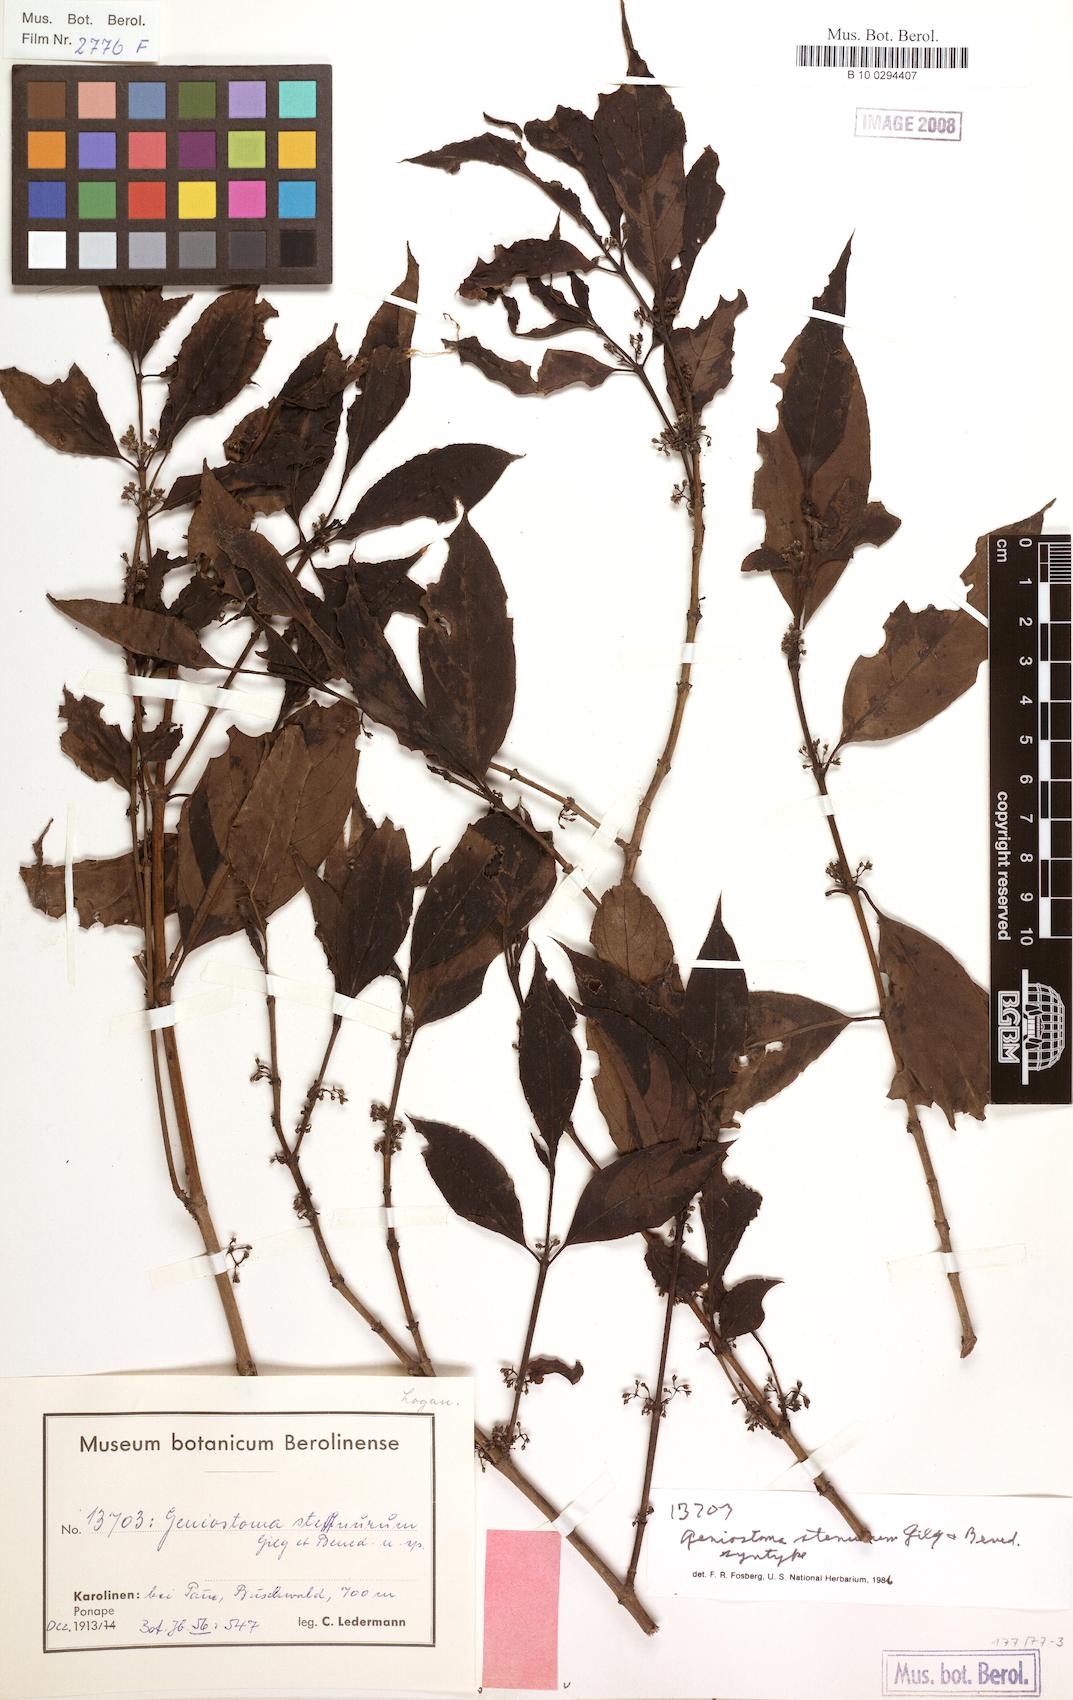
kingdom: Plantae
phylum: Tracheophyta
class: Magnoliopsida
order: Gentianales
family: Loganiaceae
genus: Geniostoma
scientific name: Geniostoma rupestre
